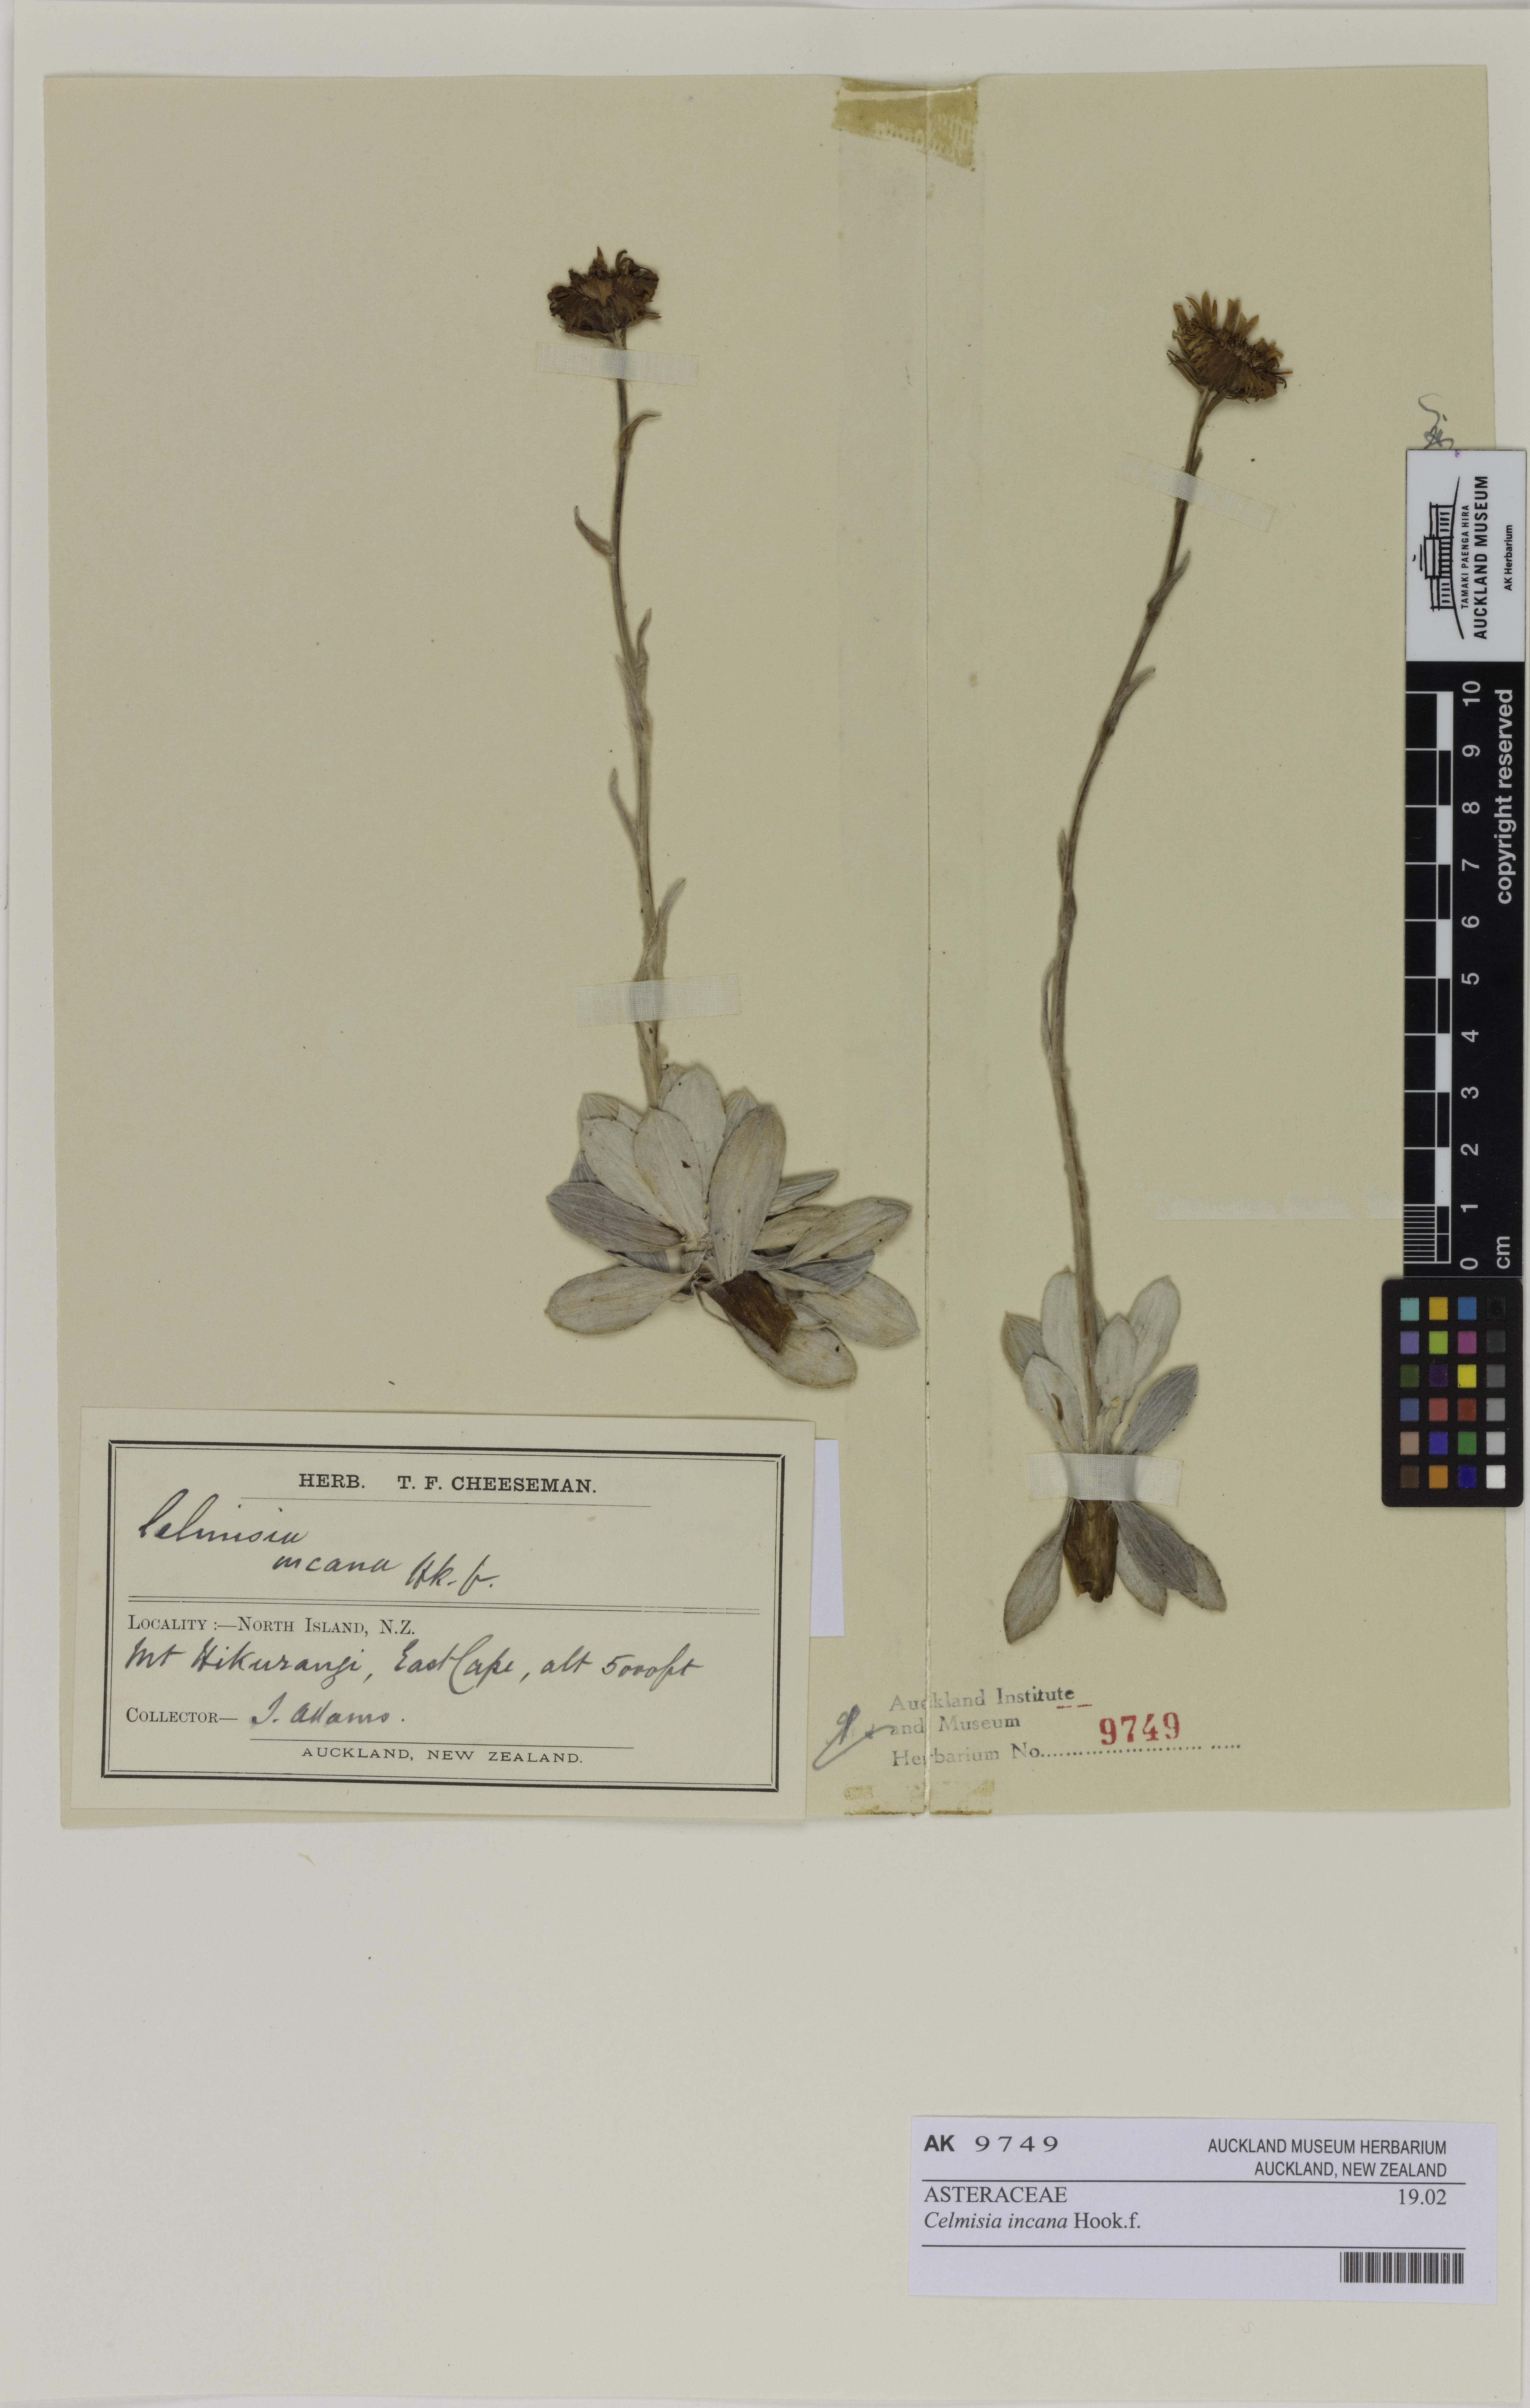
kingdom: Plantae
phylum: Tracheophyta
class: Magnoliopsida
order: Asterales
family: Asteraceae
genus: Celmisia
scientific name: Celmisia incana
